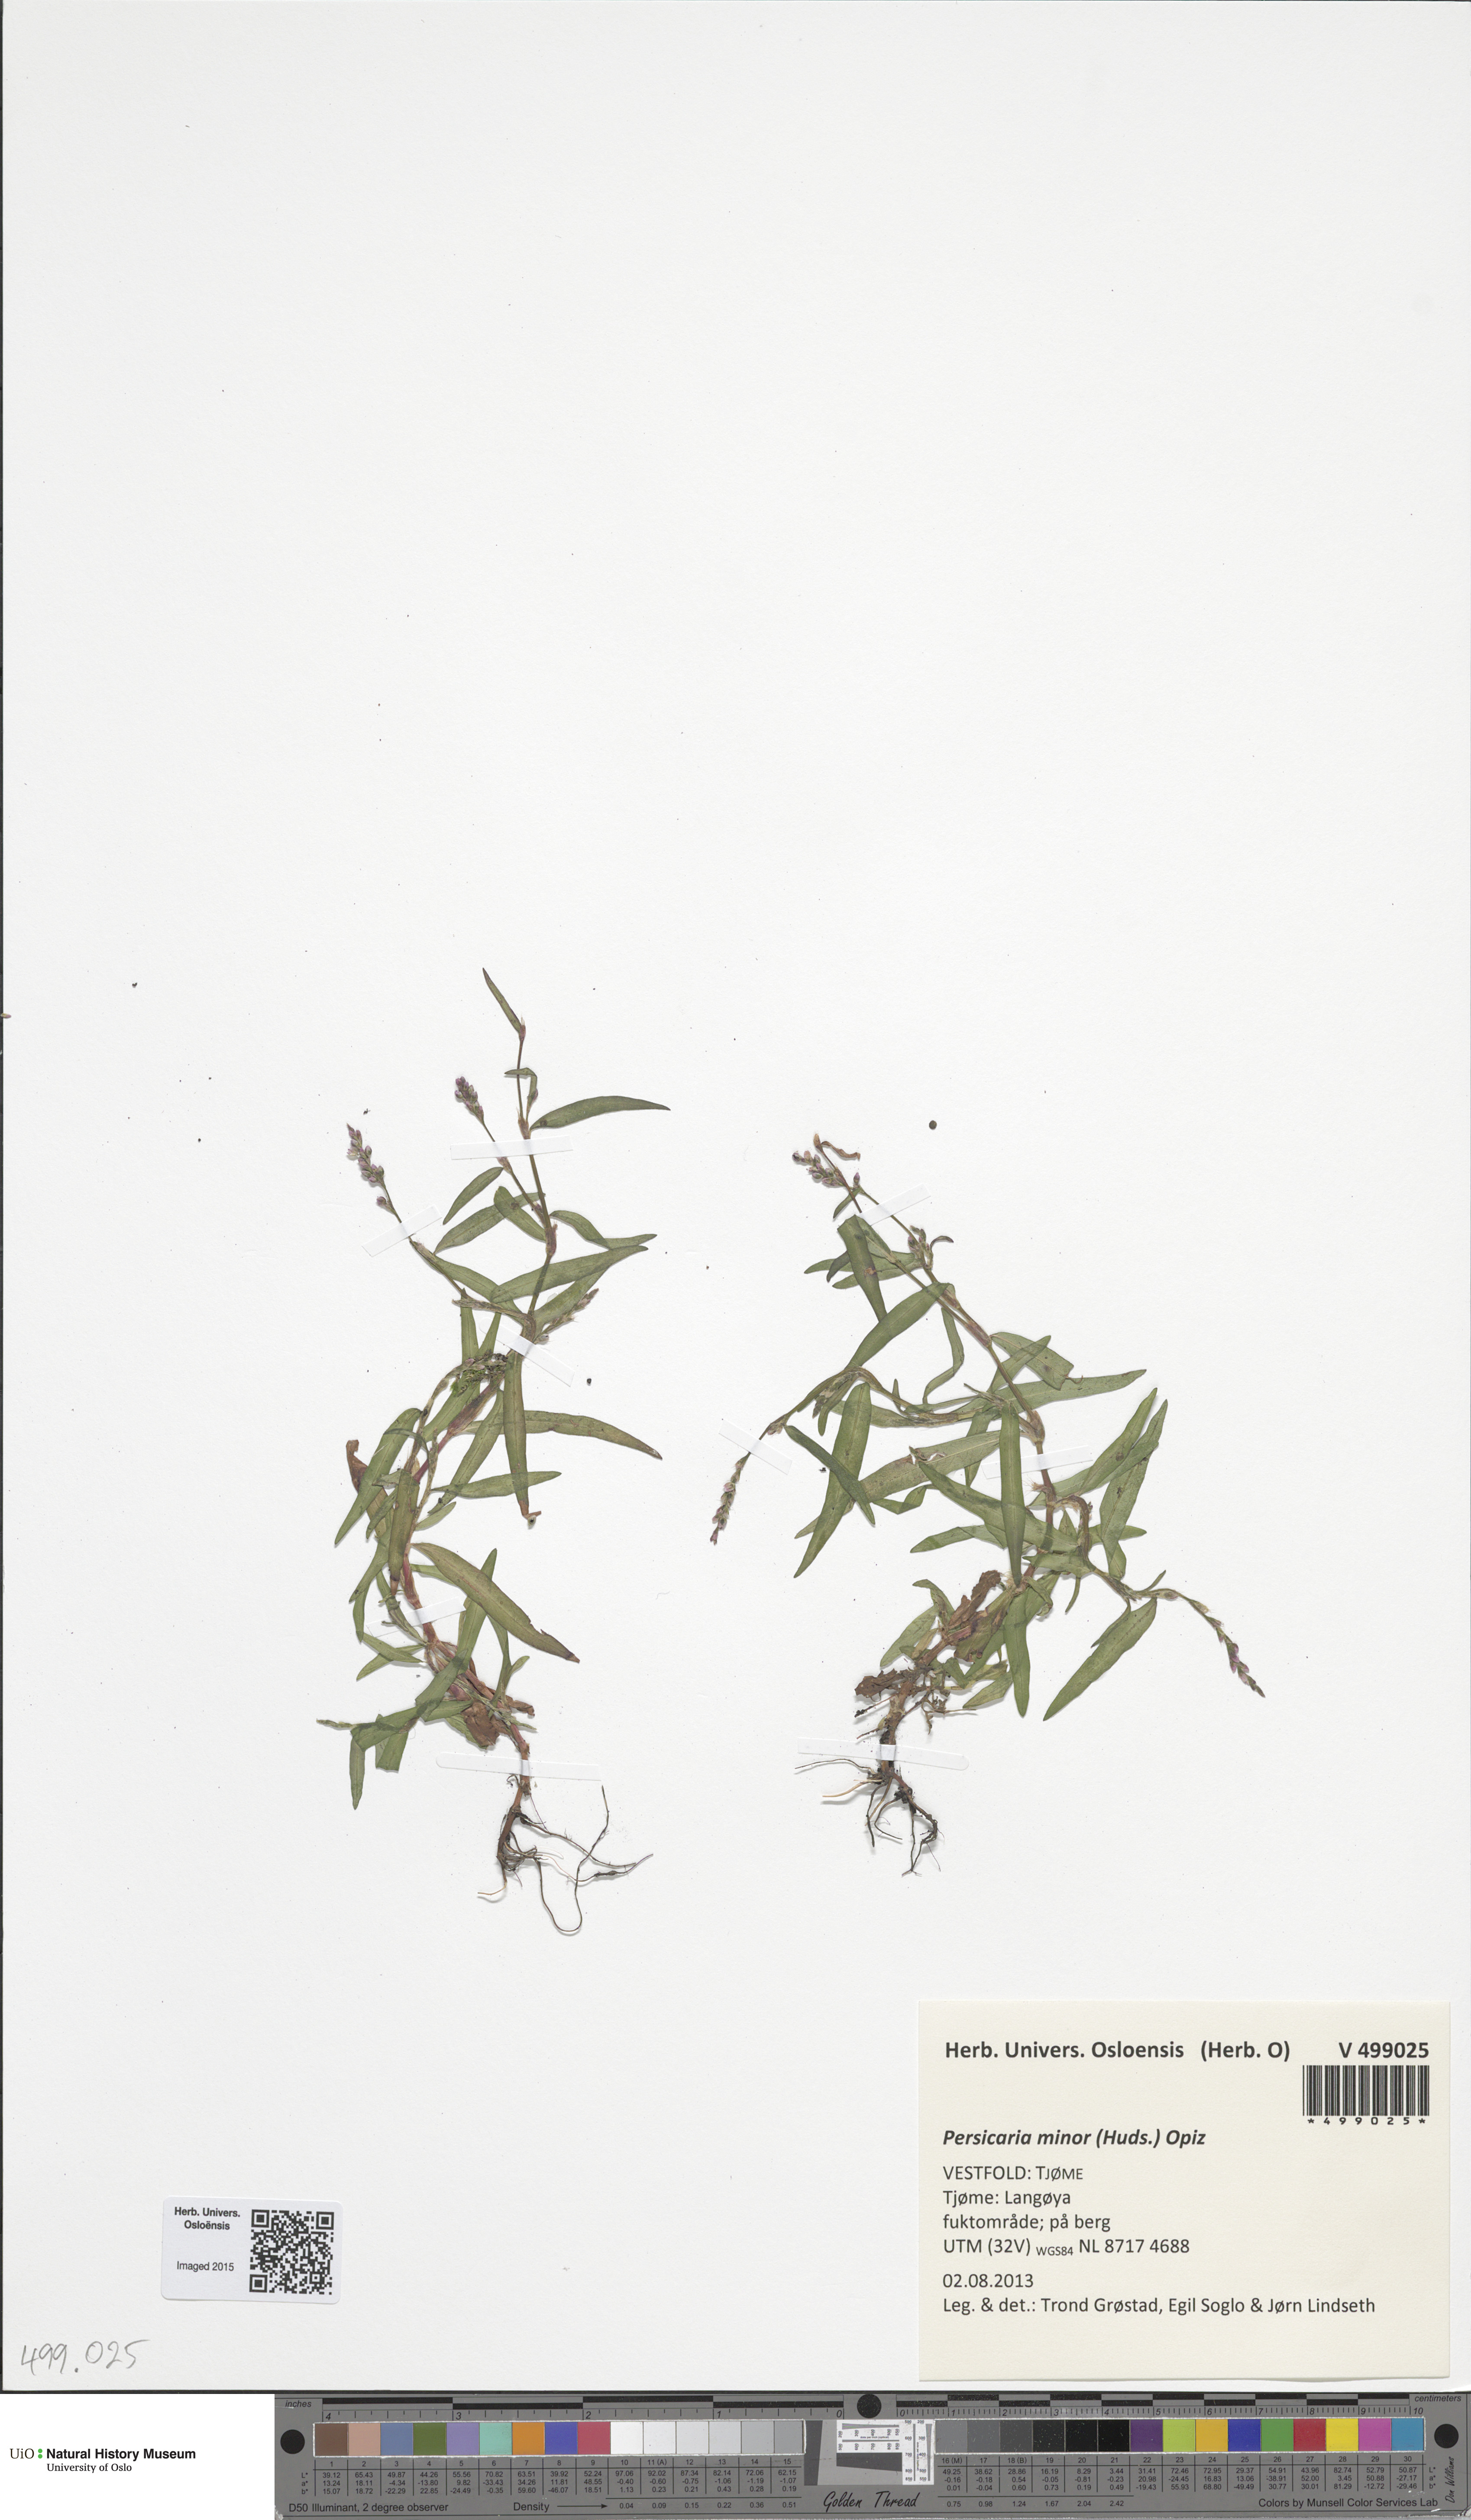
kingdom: Plantae
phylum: Tracheophyta
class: Magnoliopsida
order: Caryophyllales
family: Polygonaceae
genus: Persicaria
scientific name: Persicaria minor
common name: Small water-pepper
